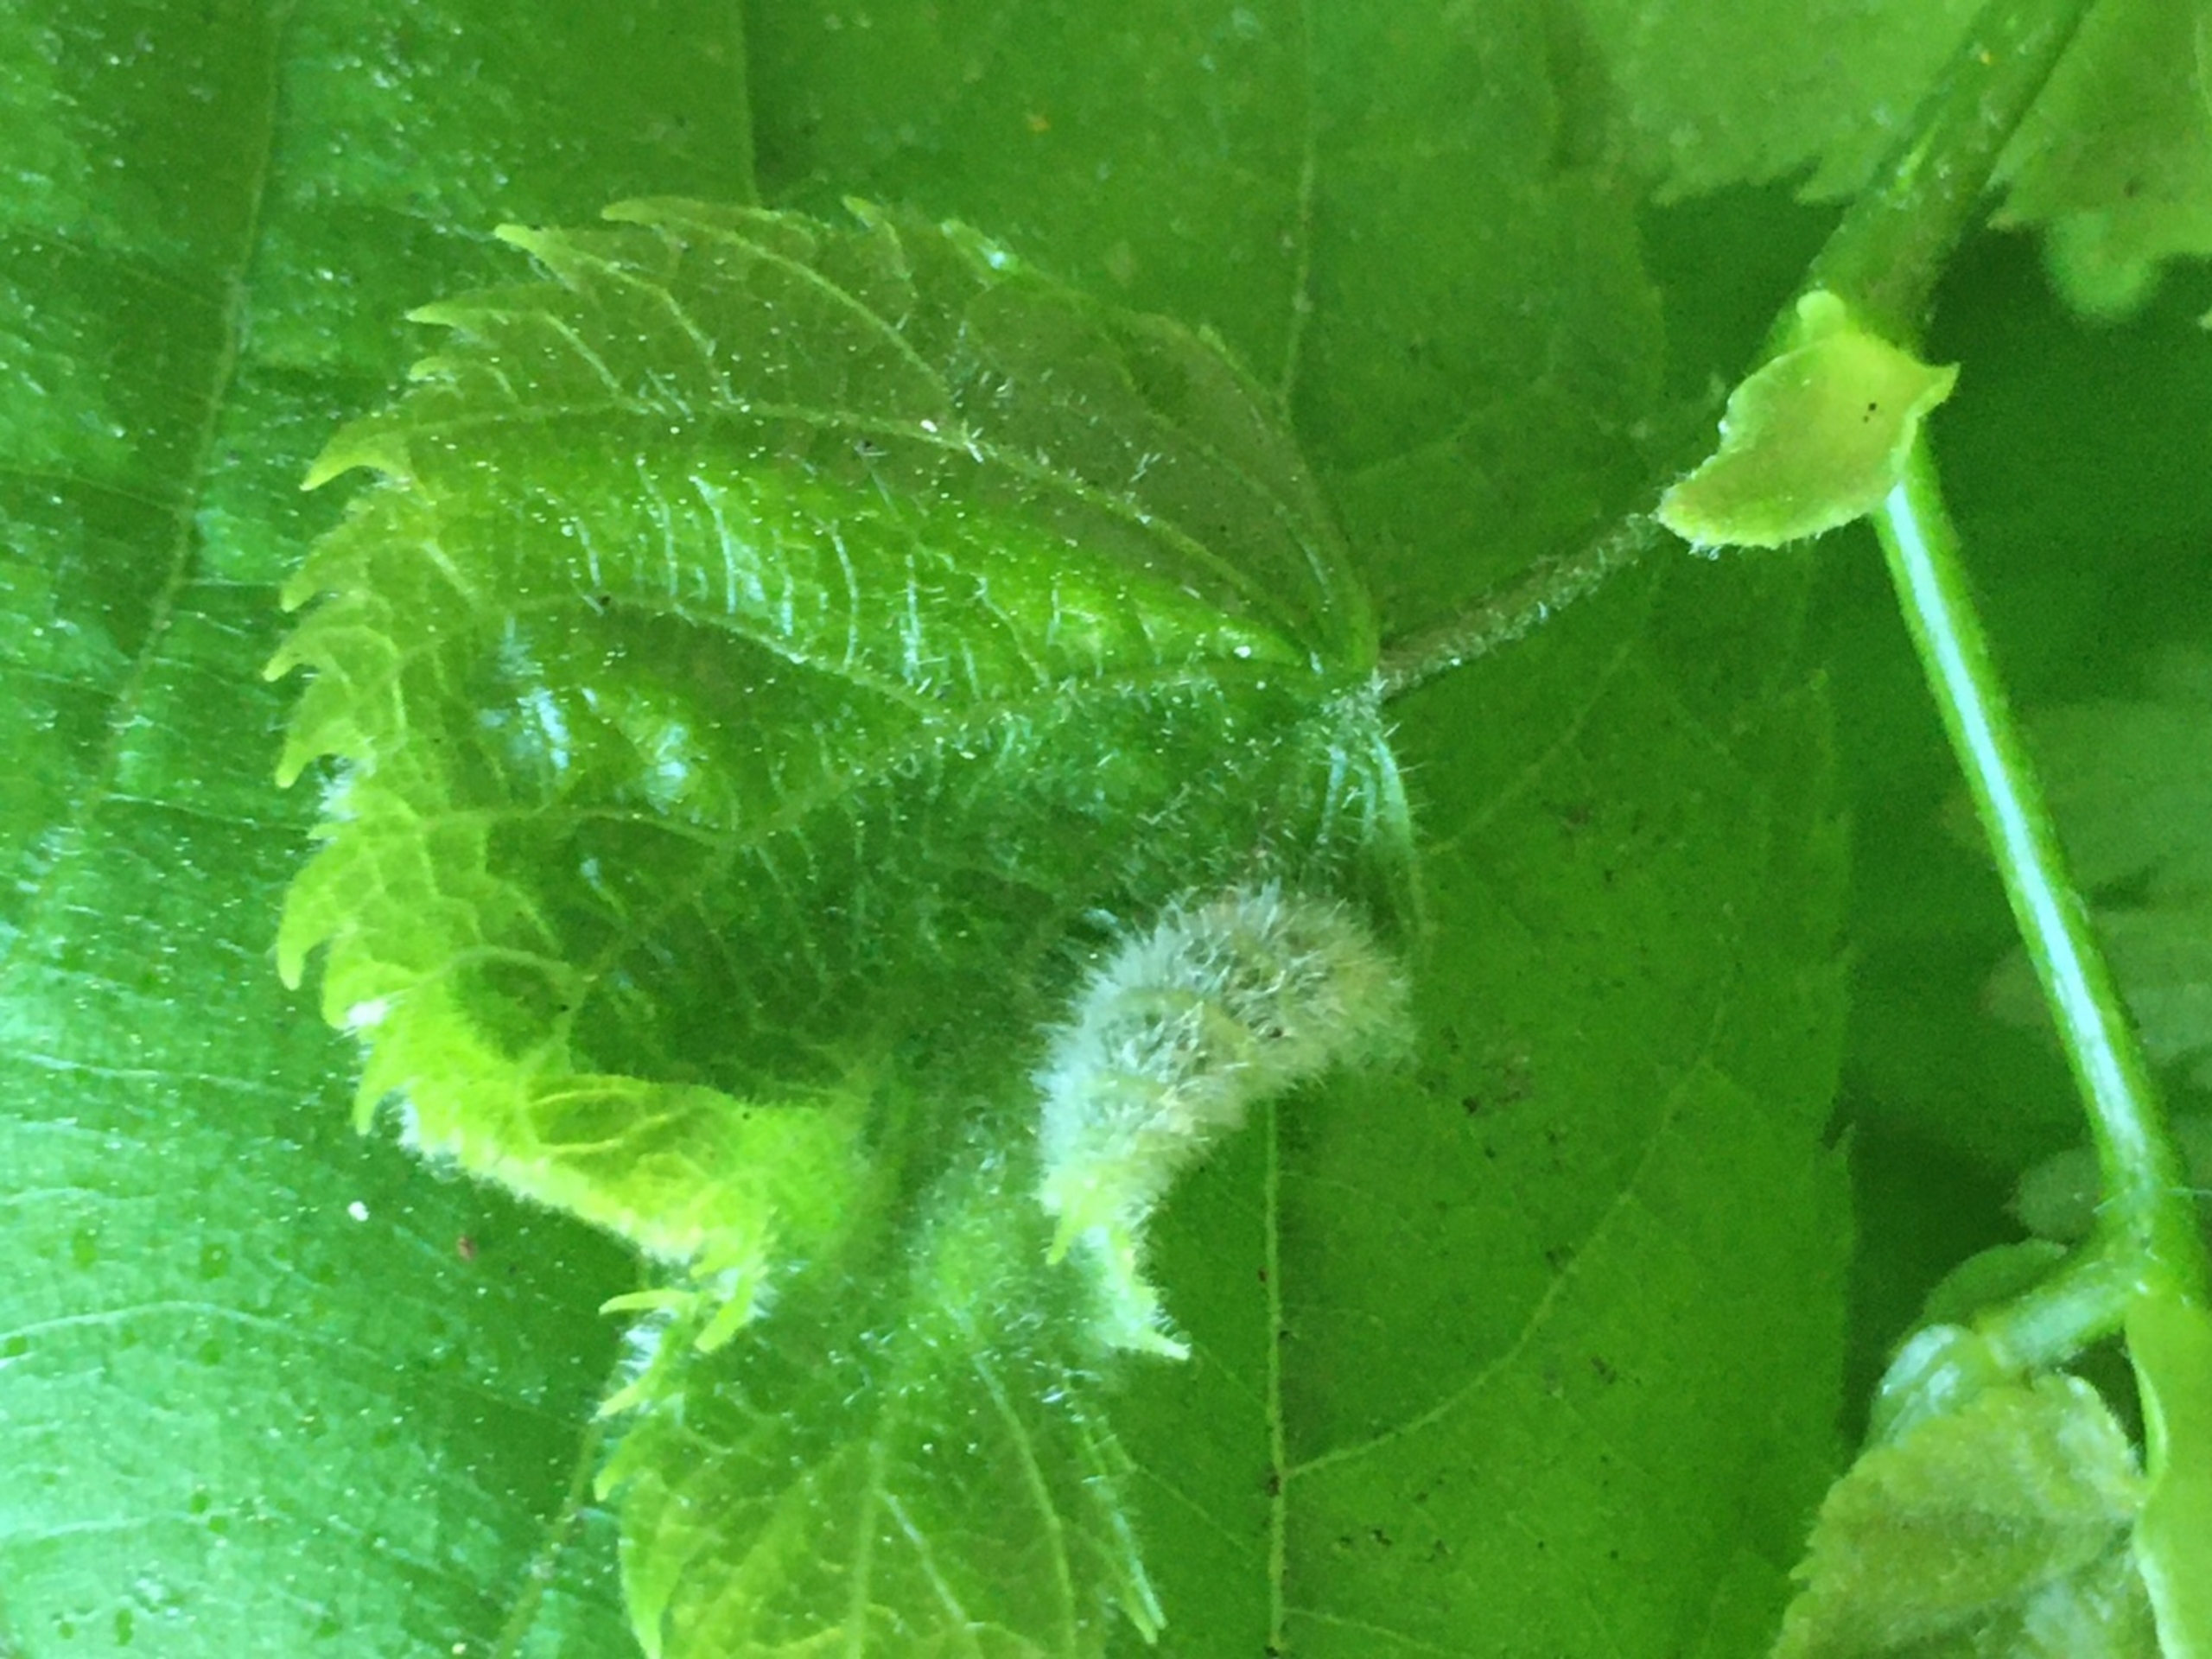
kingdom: Animalia
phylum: Arthropoda
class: Insecta
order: Diptera
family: Cecidomyiidae
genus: Dasineura
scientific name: Dasineura tiliae
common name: Linderullegalmyg
